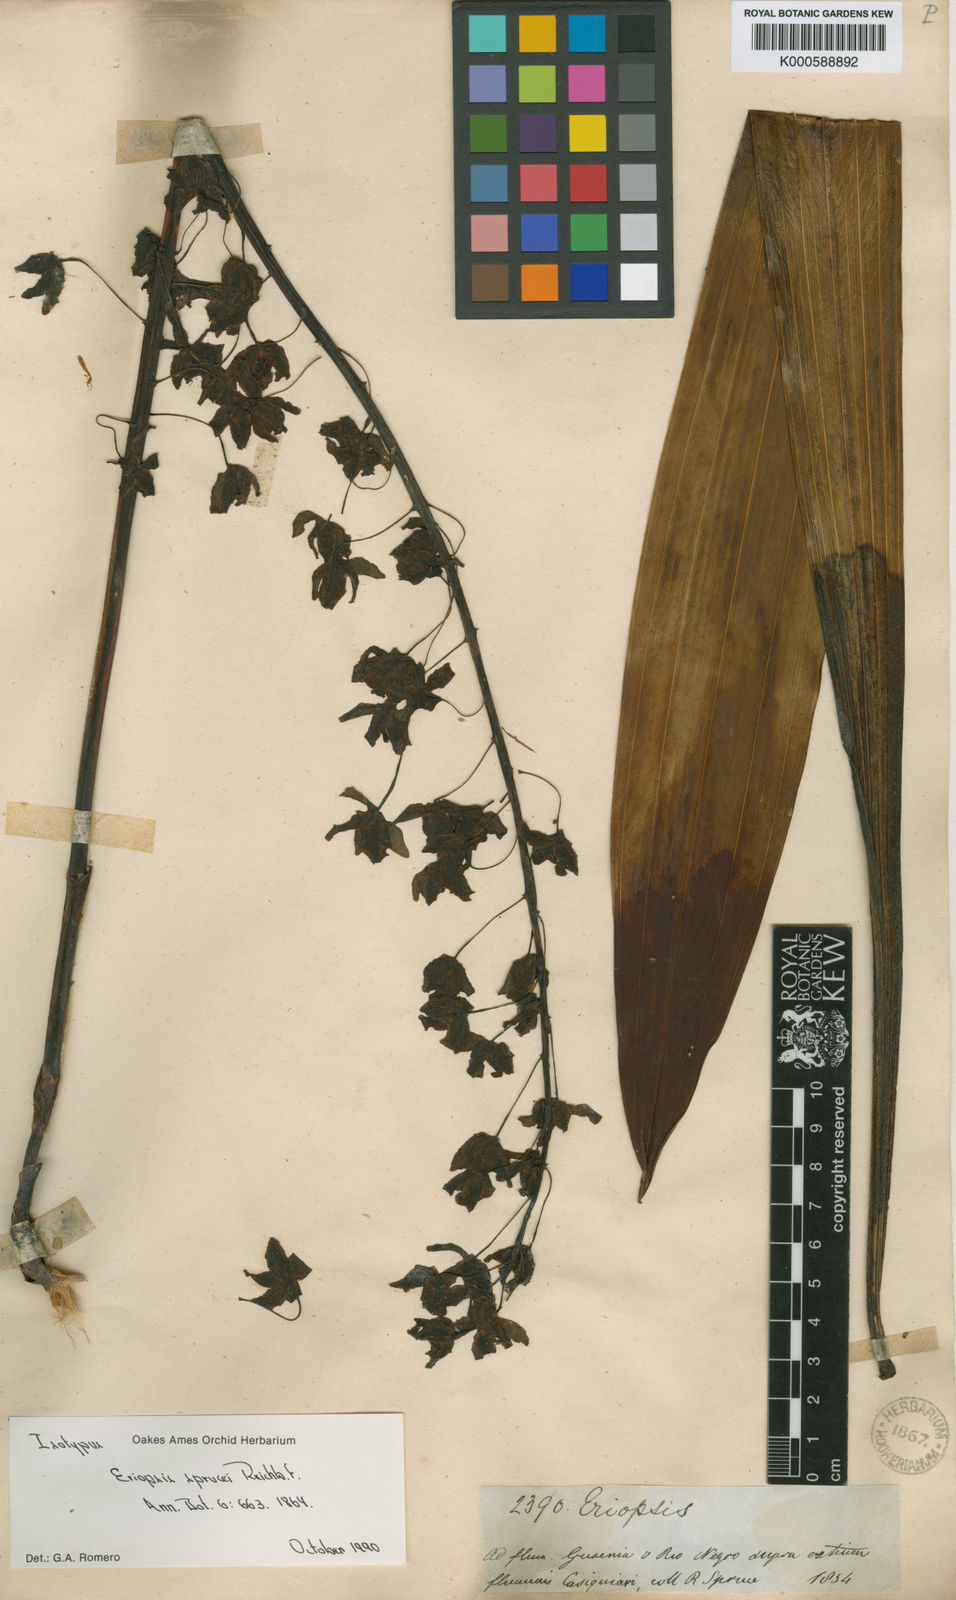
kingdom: Plantae
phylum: Tracheophyta
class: Liliopsida
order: Asparagales
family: Orchidaceae
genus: Eriopsis
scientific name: Eriopsis altissima
